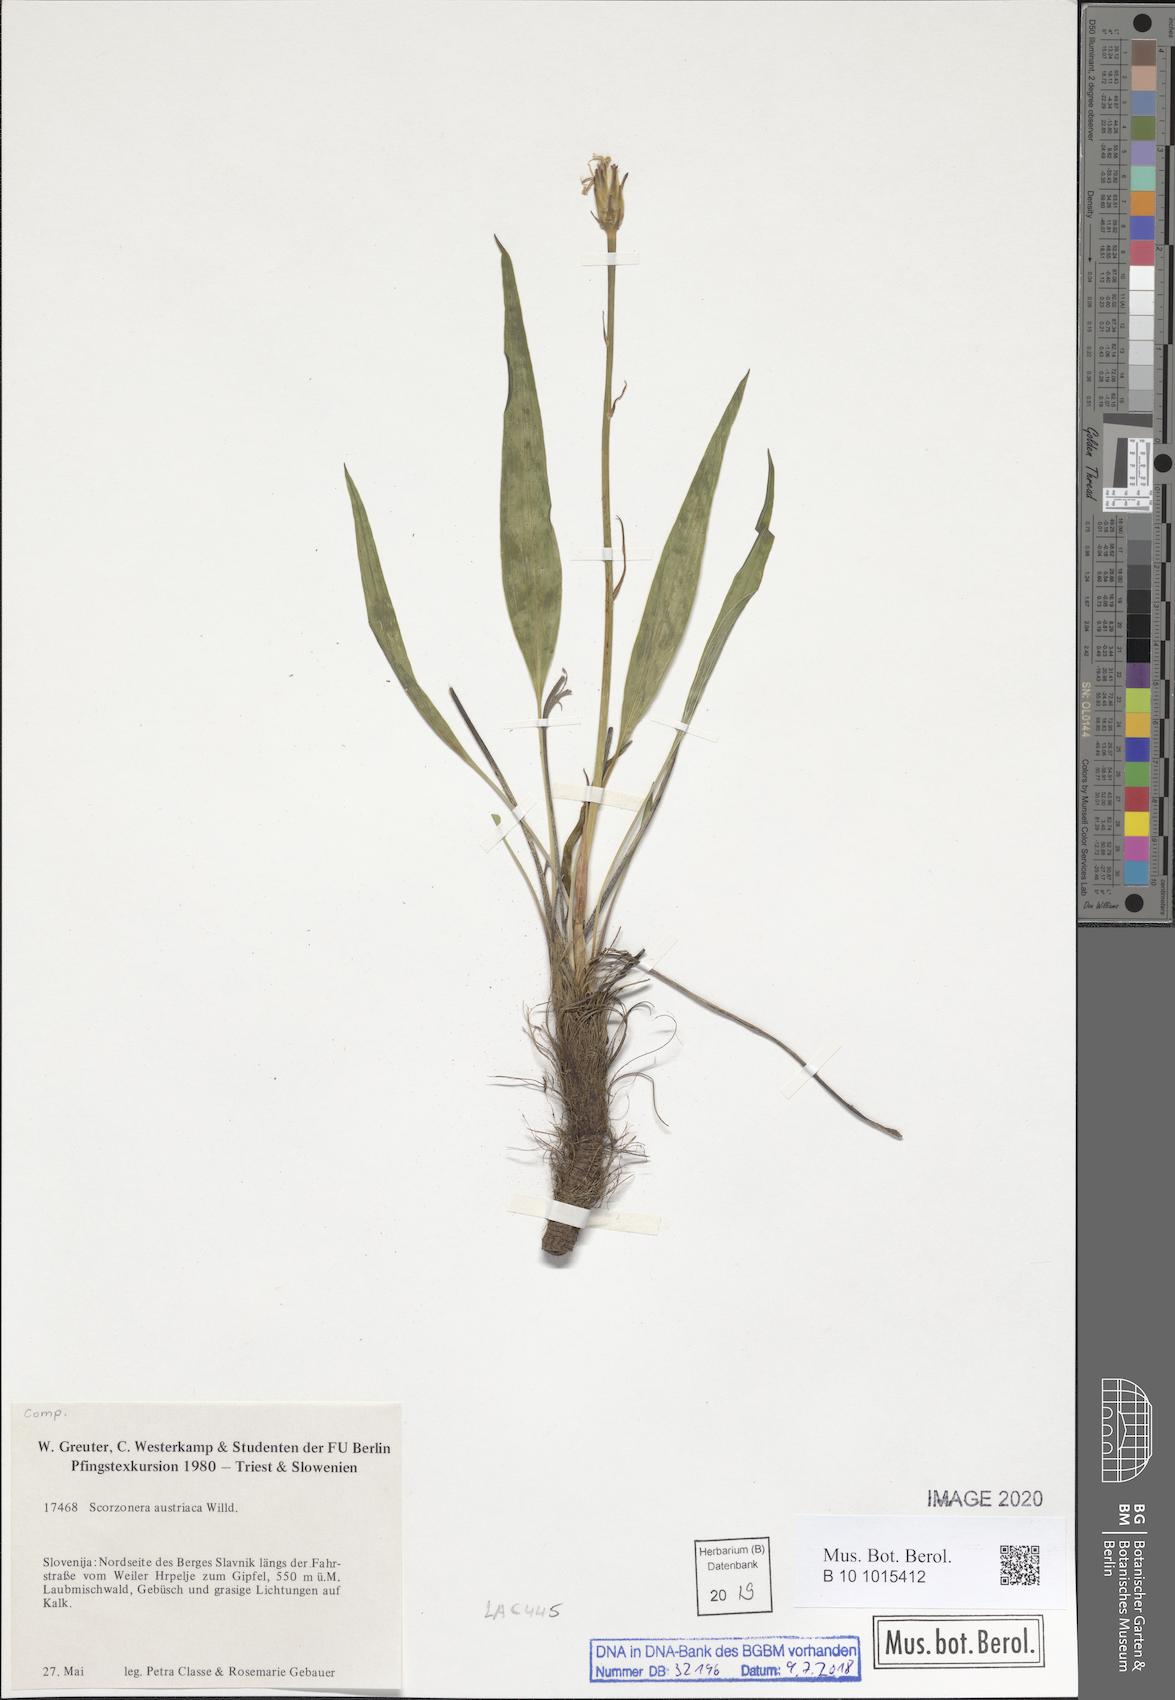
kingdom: Plantae
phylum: Tracheophyta
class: Magnoliopsida
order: Asterales
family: Asteraceae
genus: Takhtajaniantha
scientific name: Takhtajaniantha austriaca
